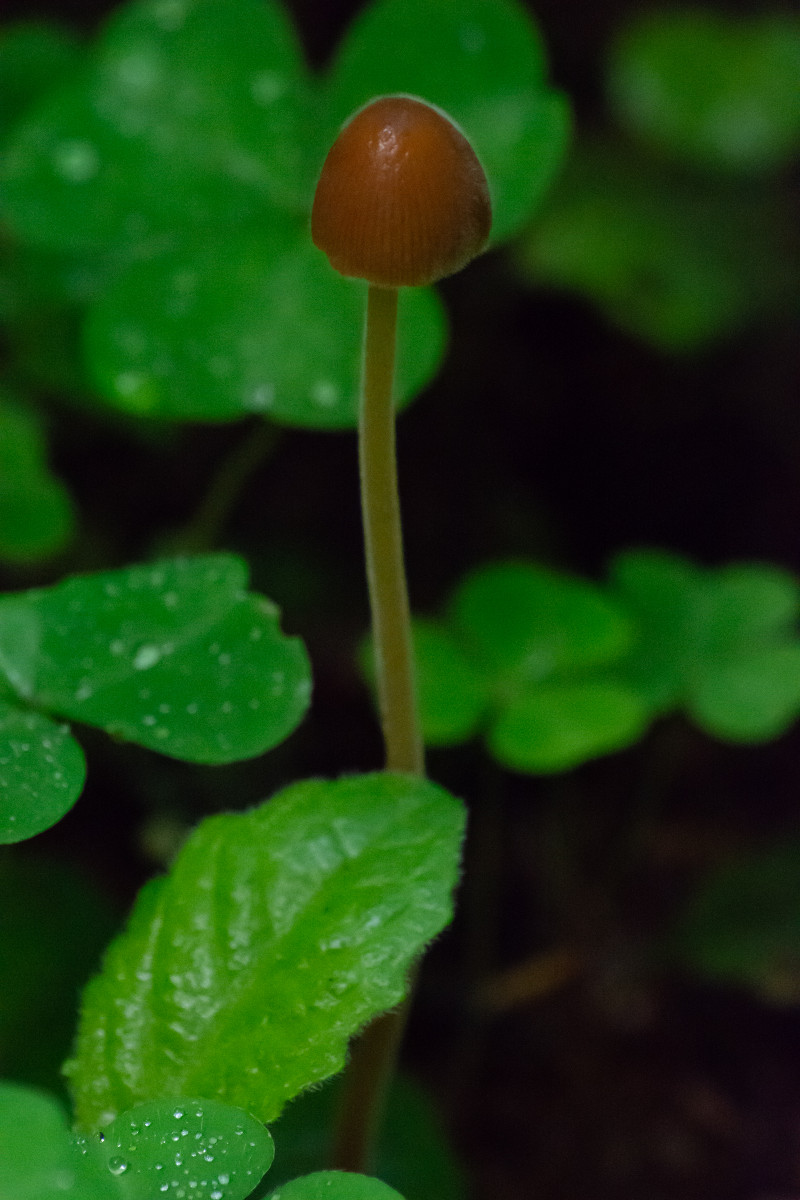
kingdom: Fungi
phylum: Basidiomycota
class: Agaricomycetes
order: Agaricales
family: Bolbitiaceae
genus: Conocybe
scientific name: Conocybe
